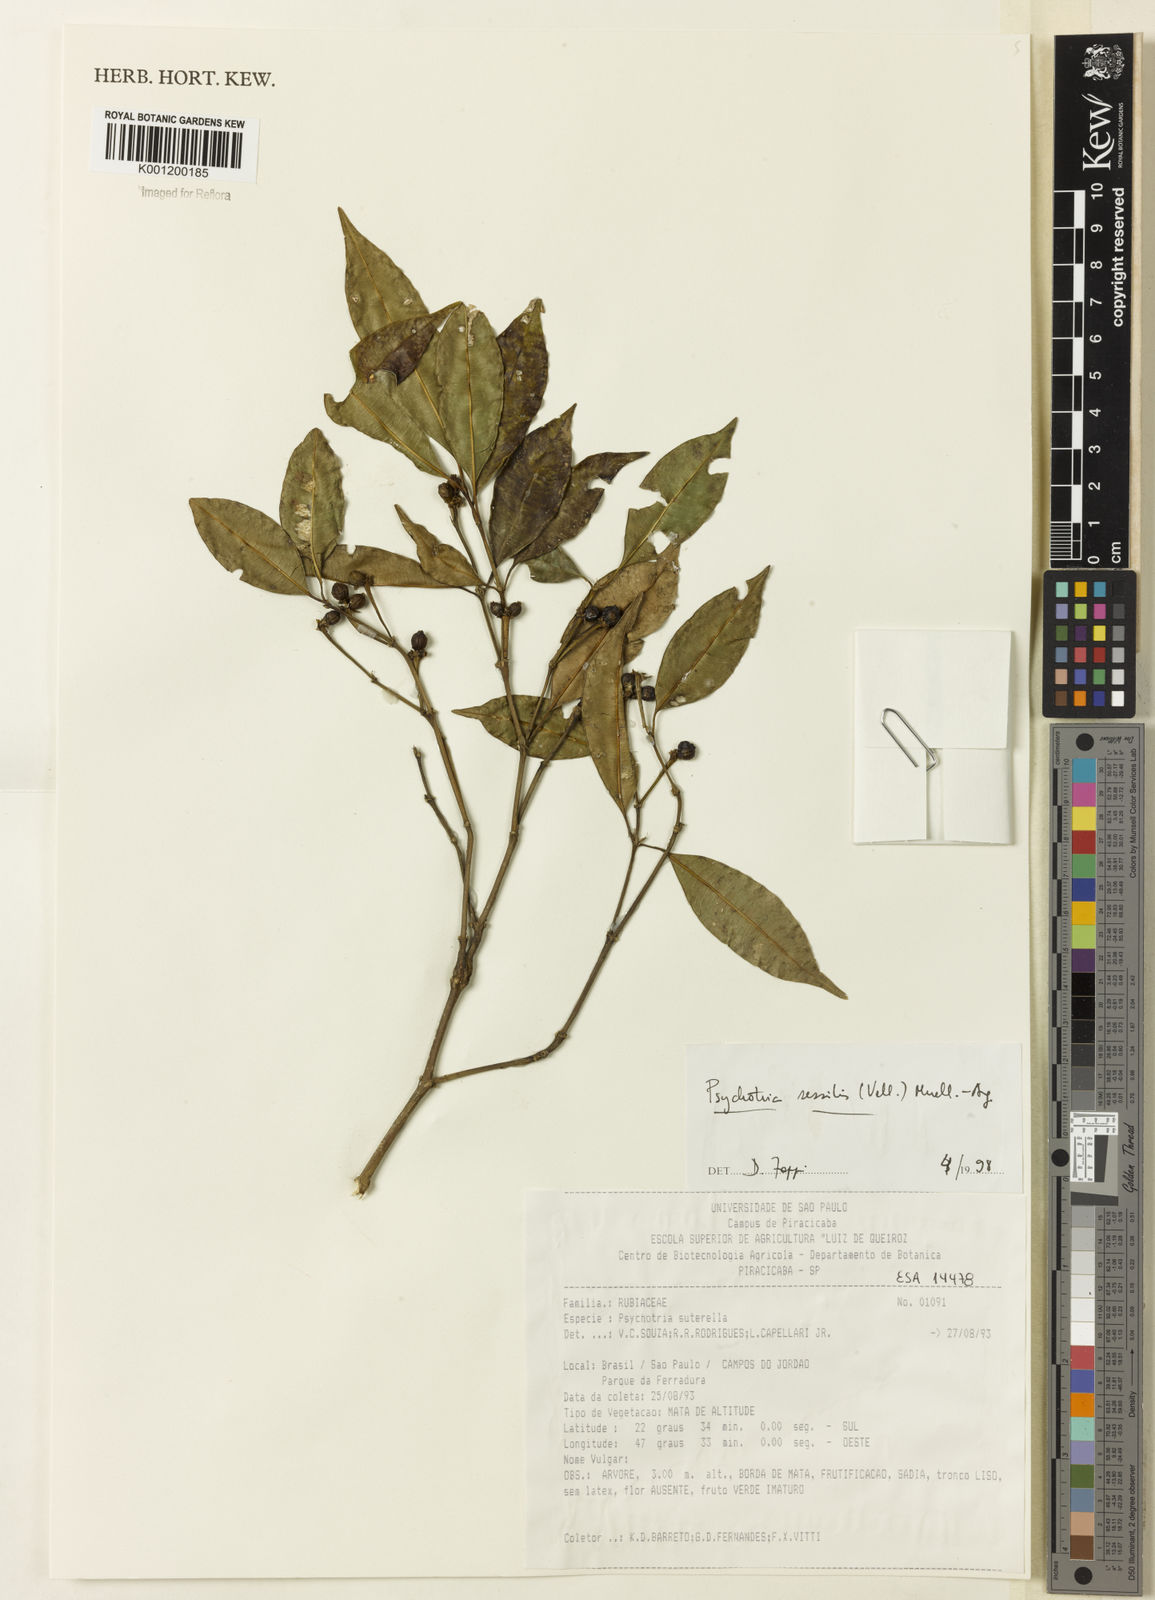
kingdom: Plantae
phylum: Tracheophyta
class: Magnoliopsida
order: Gentianales
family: Rubiaceae
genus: Rudgea
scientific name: Rudgea sessilis
